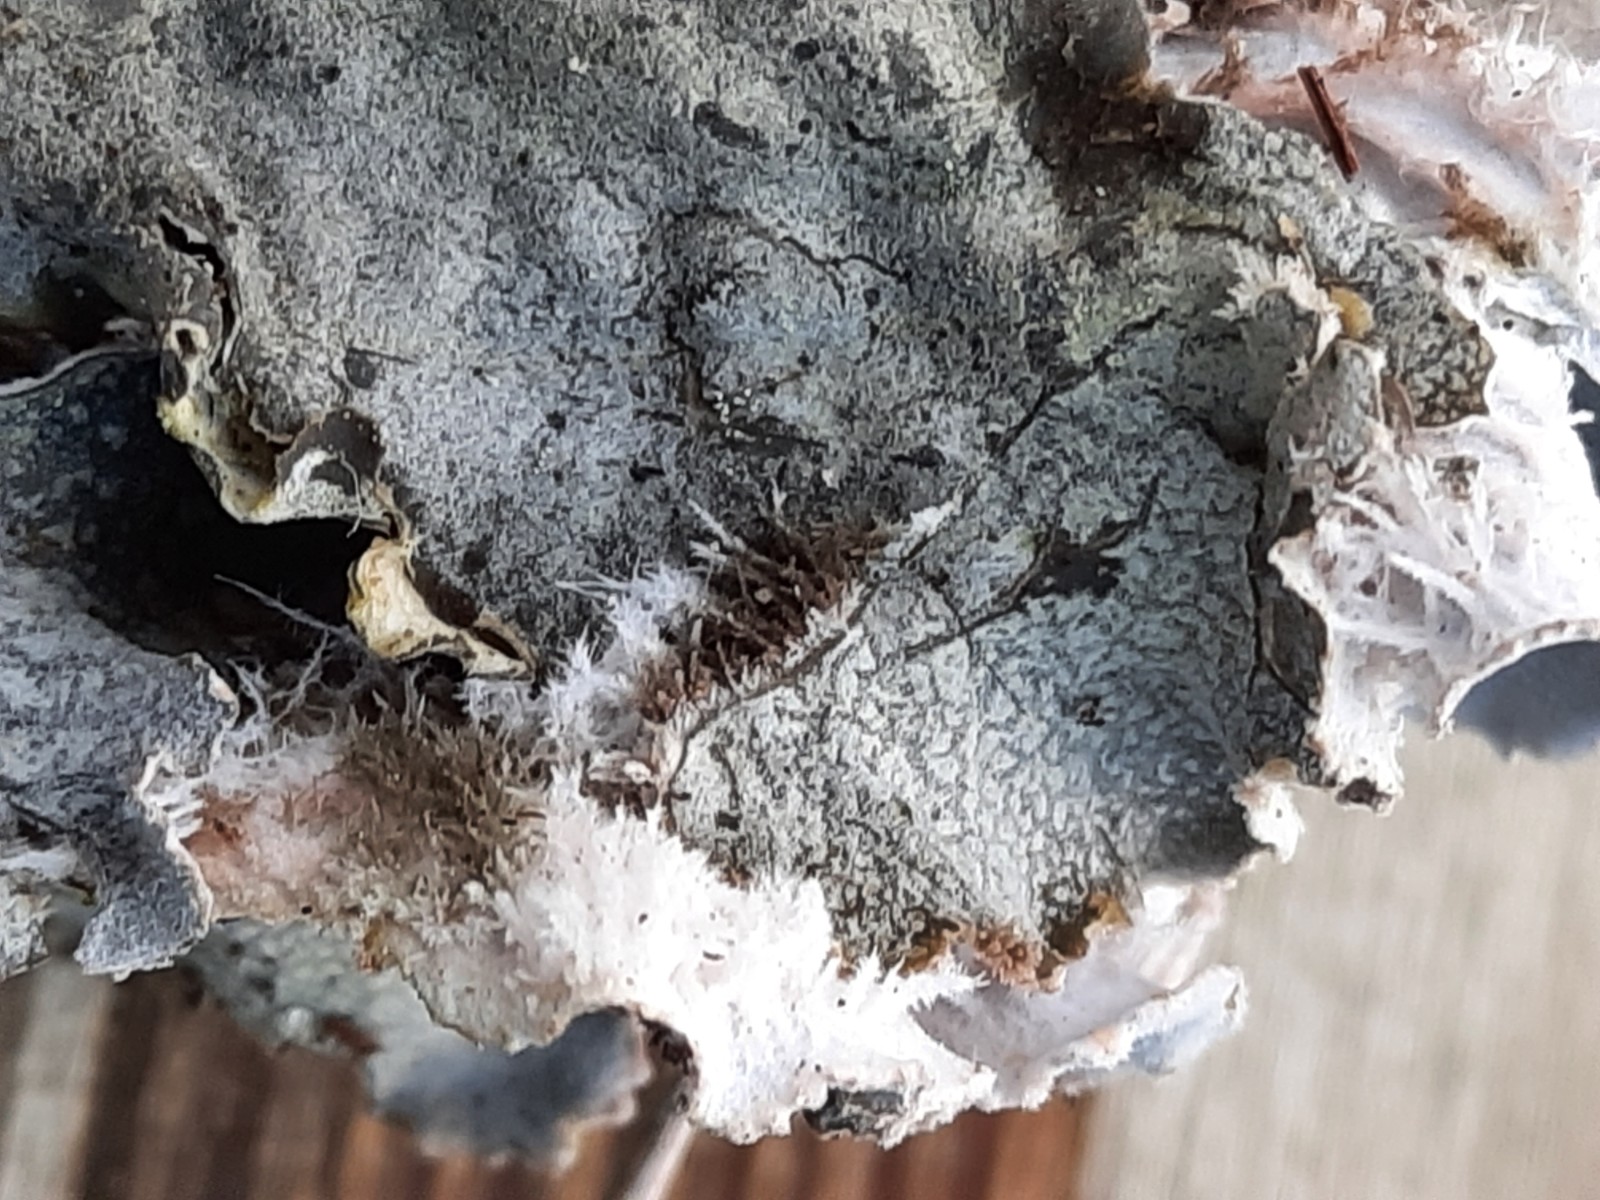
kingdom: Fungi
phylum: Ascomycota
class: Lecanoromycetes
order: Peltigerales
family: Peltigeraceae
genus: Peltigera
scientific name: Peltigera canina
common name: hunde-skjoldlav
